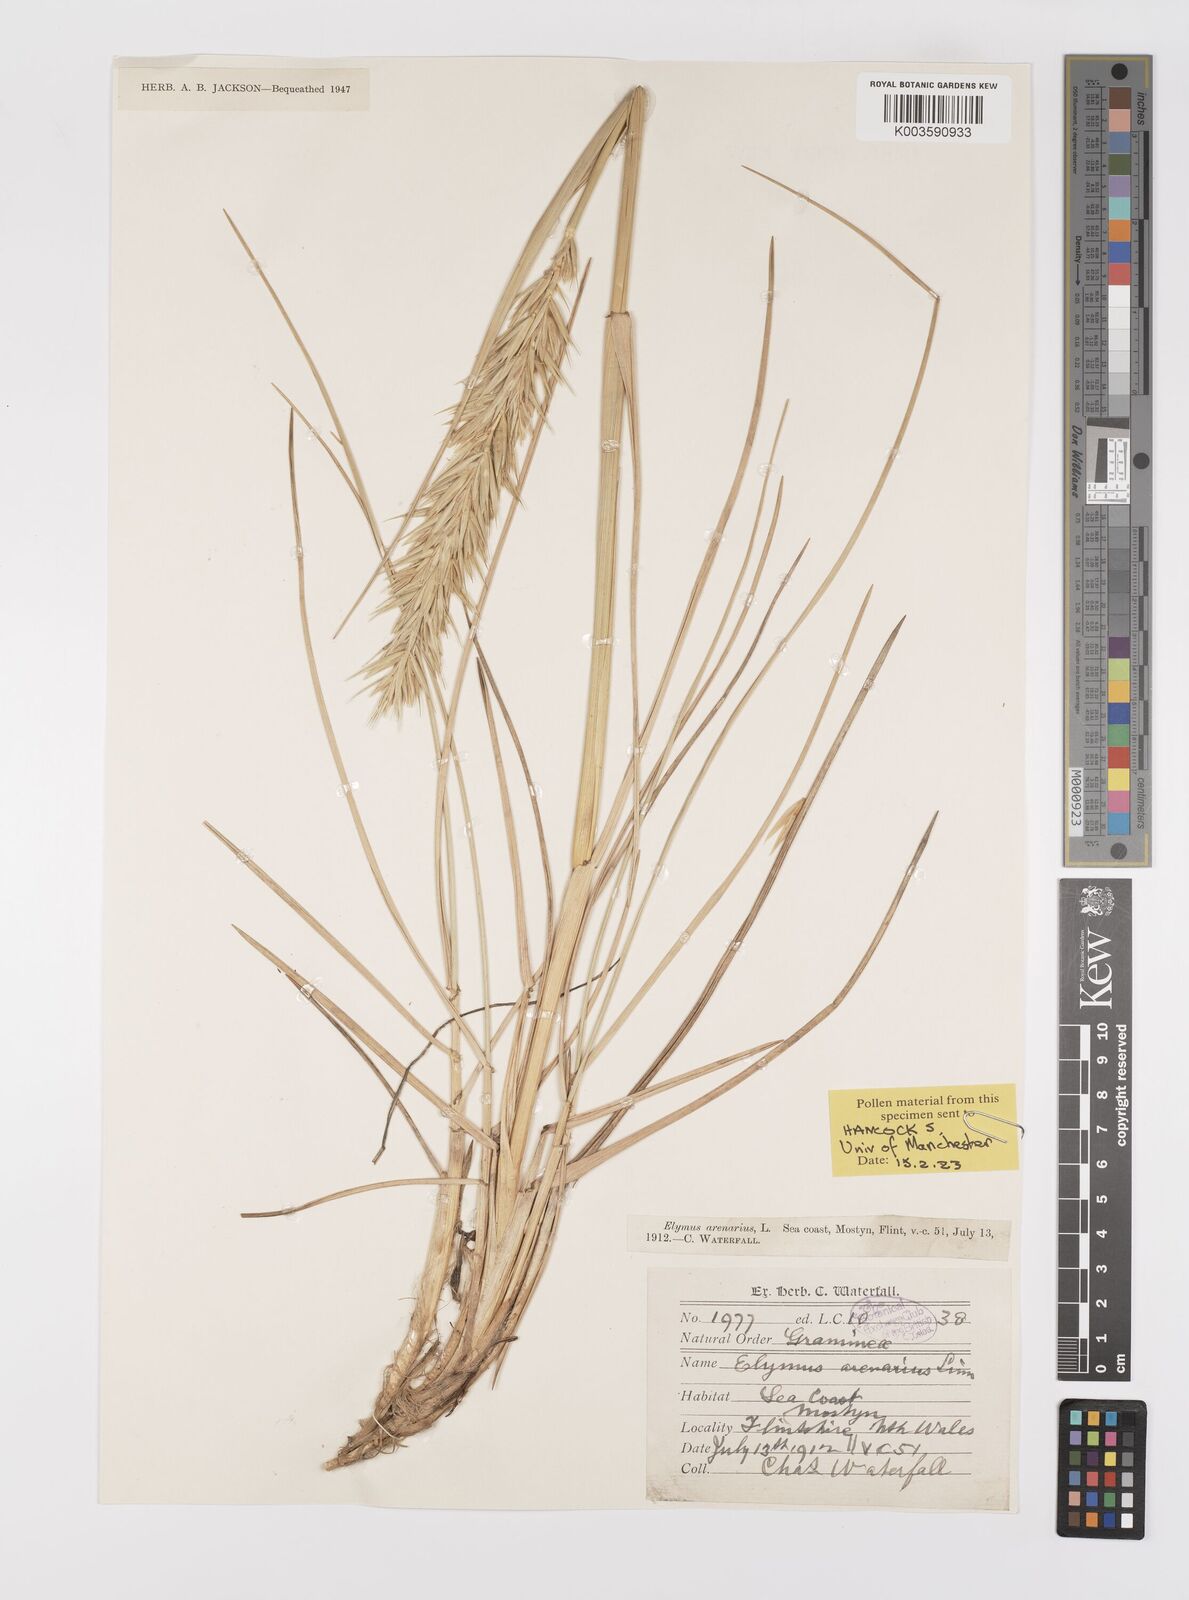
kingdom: Plantae
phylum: Tracheophyta
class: Liliopsida
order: Poales
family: Poaceae
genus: Leymus
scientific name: Leymus arenarius
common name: Lyme-grass
